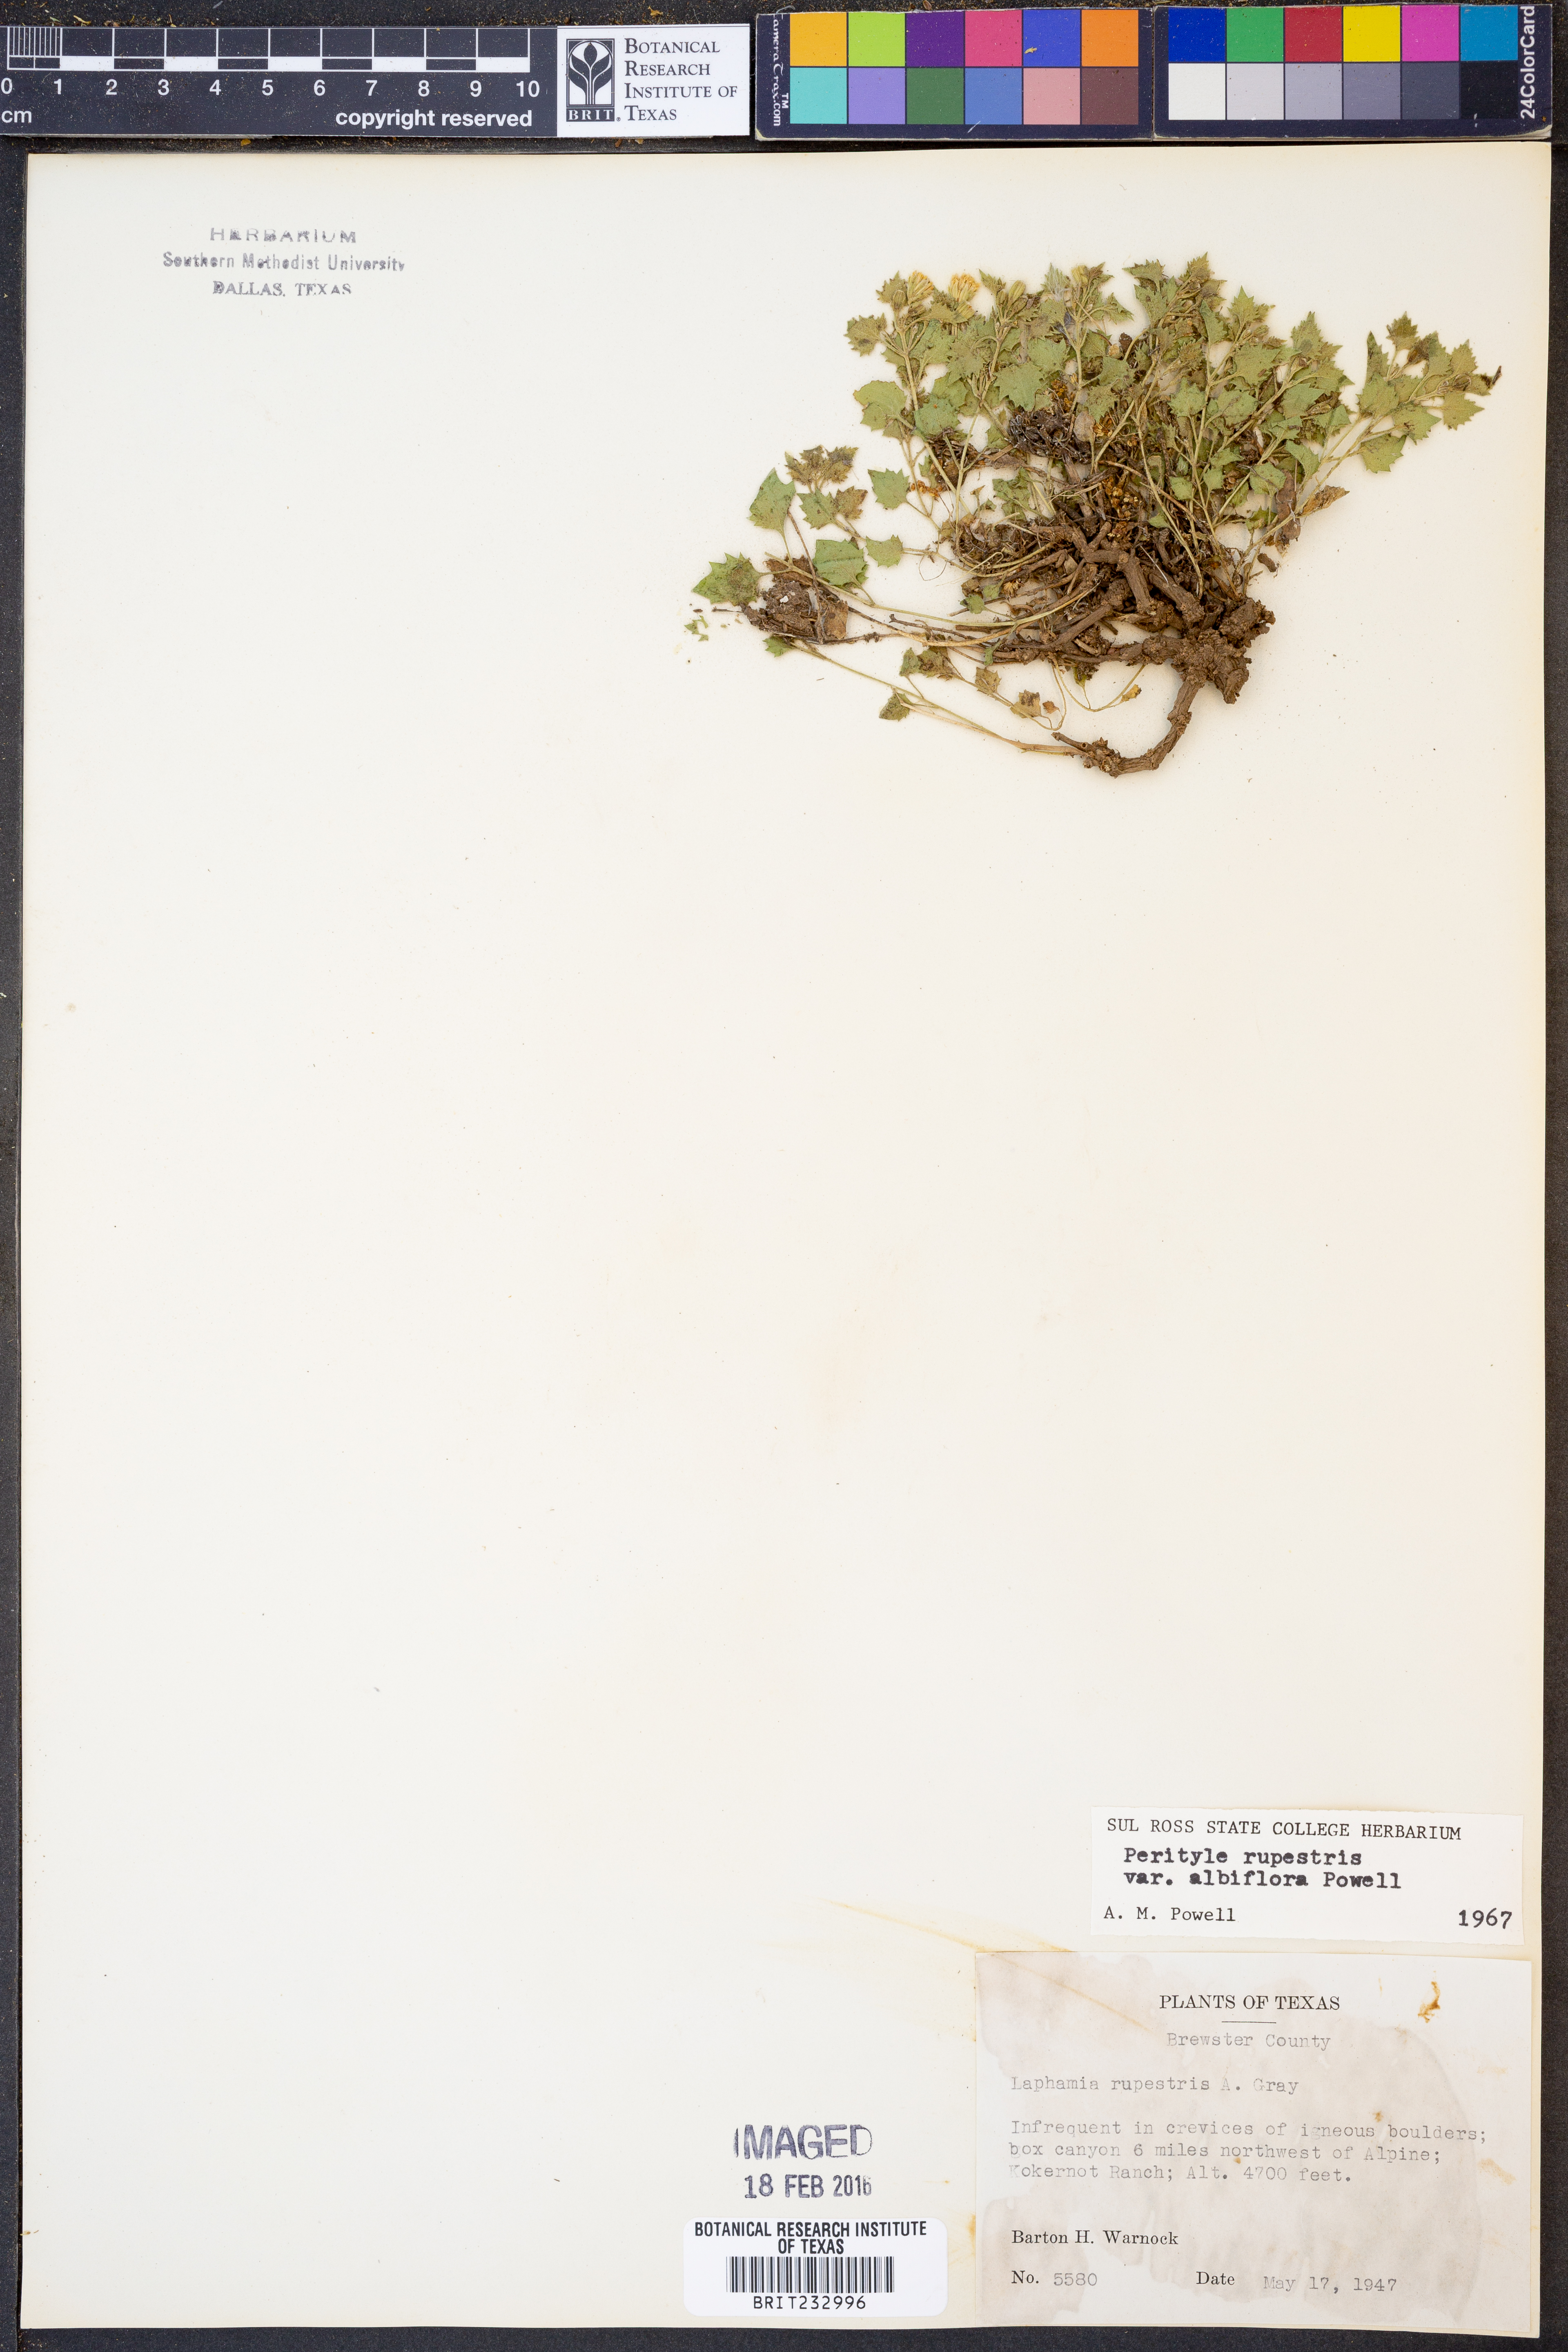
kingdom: Plantae
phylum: Tracheophyta
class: Magnoliopsida
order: Asterales
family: Asteraceae
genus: Laphamia
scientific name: Laphamia rupestris
